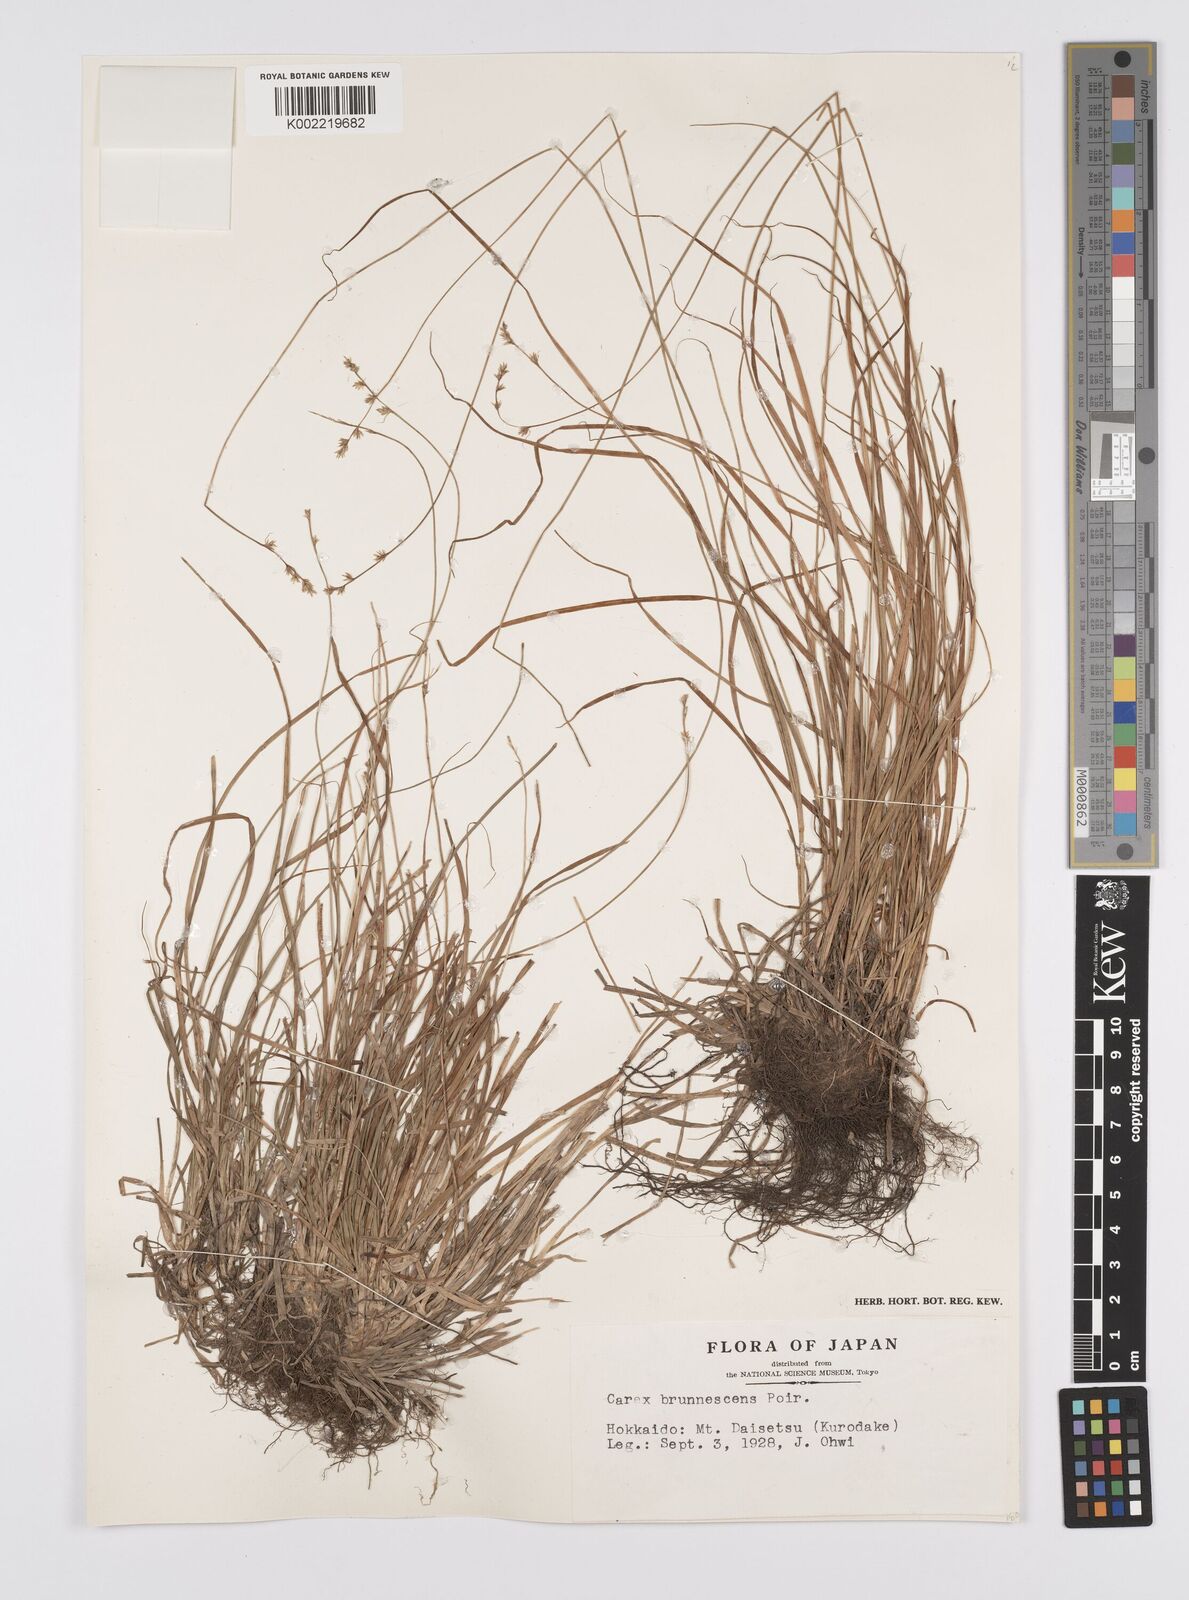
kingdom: Plantae
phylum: Tracheophyta
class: Liliopsida
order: Poales
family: Cyperaceae
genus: Carex
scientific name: Carex brunnescens
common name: Brown sedge
